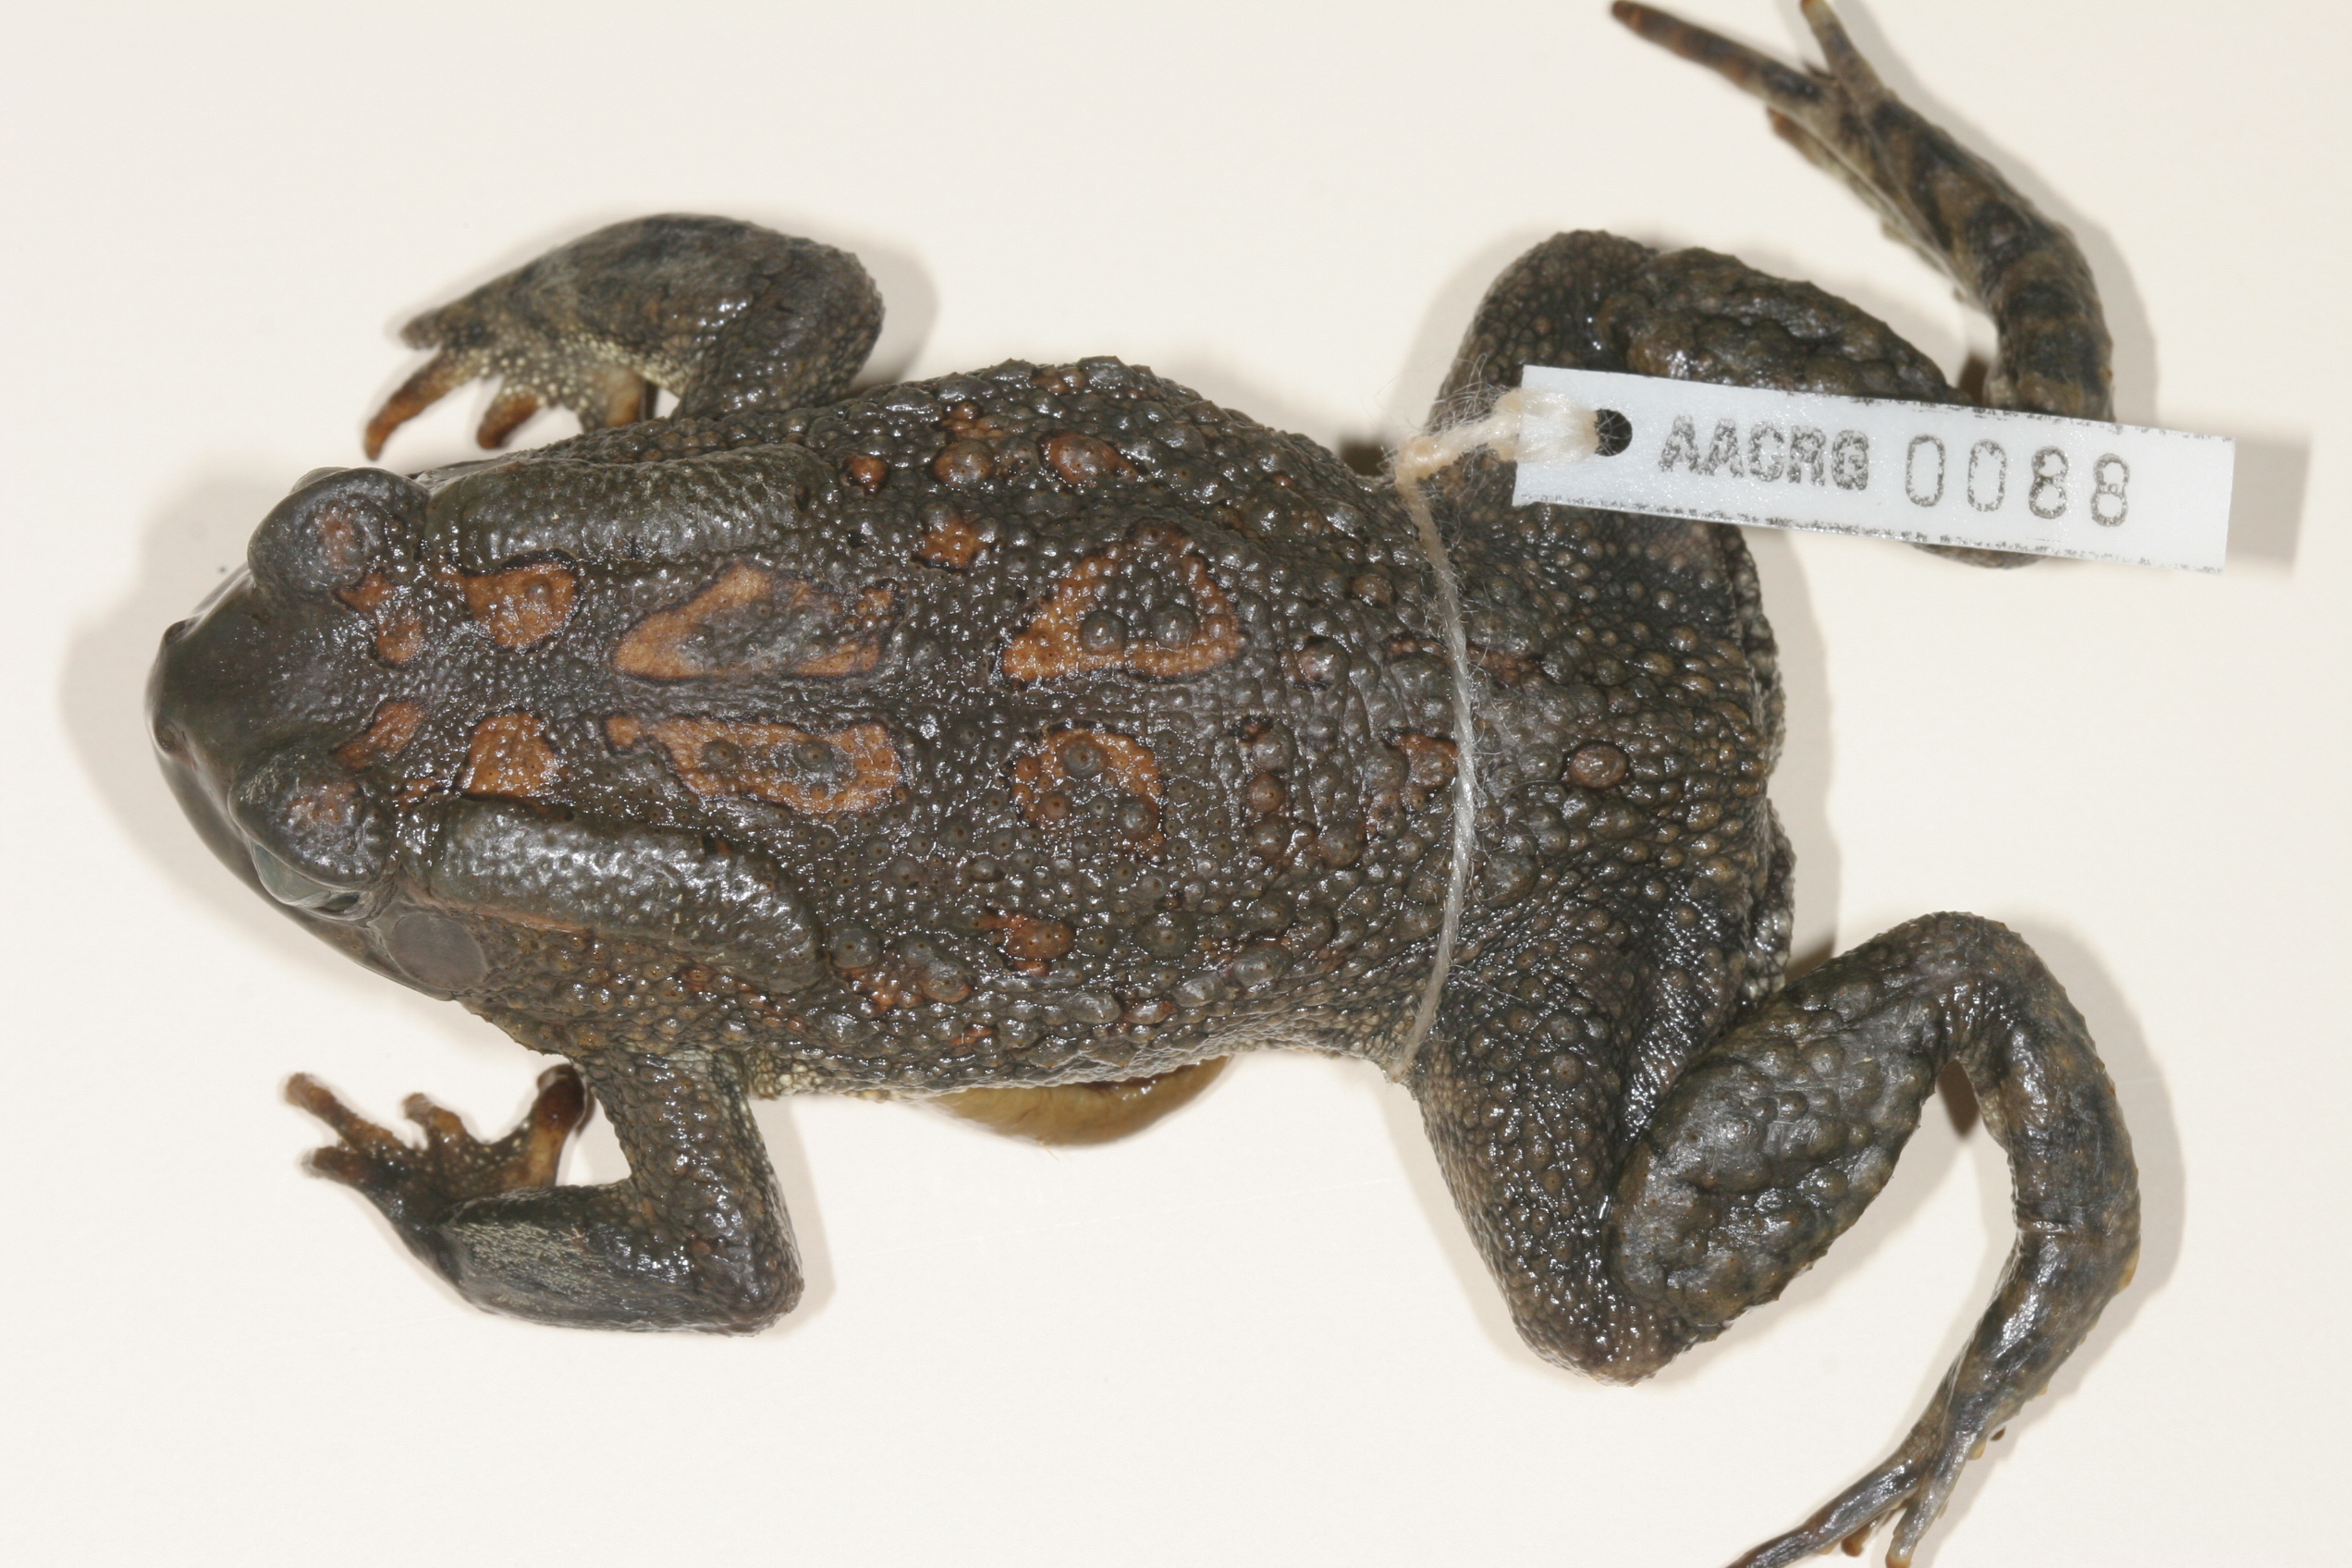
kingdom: Animalia
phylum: Chordata
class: Amphibia
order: Anura
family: Bufonidae
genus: Sclerophrys
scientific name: Sclerophrys garmani
